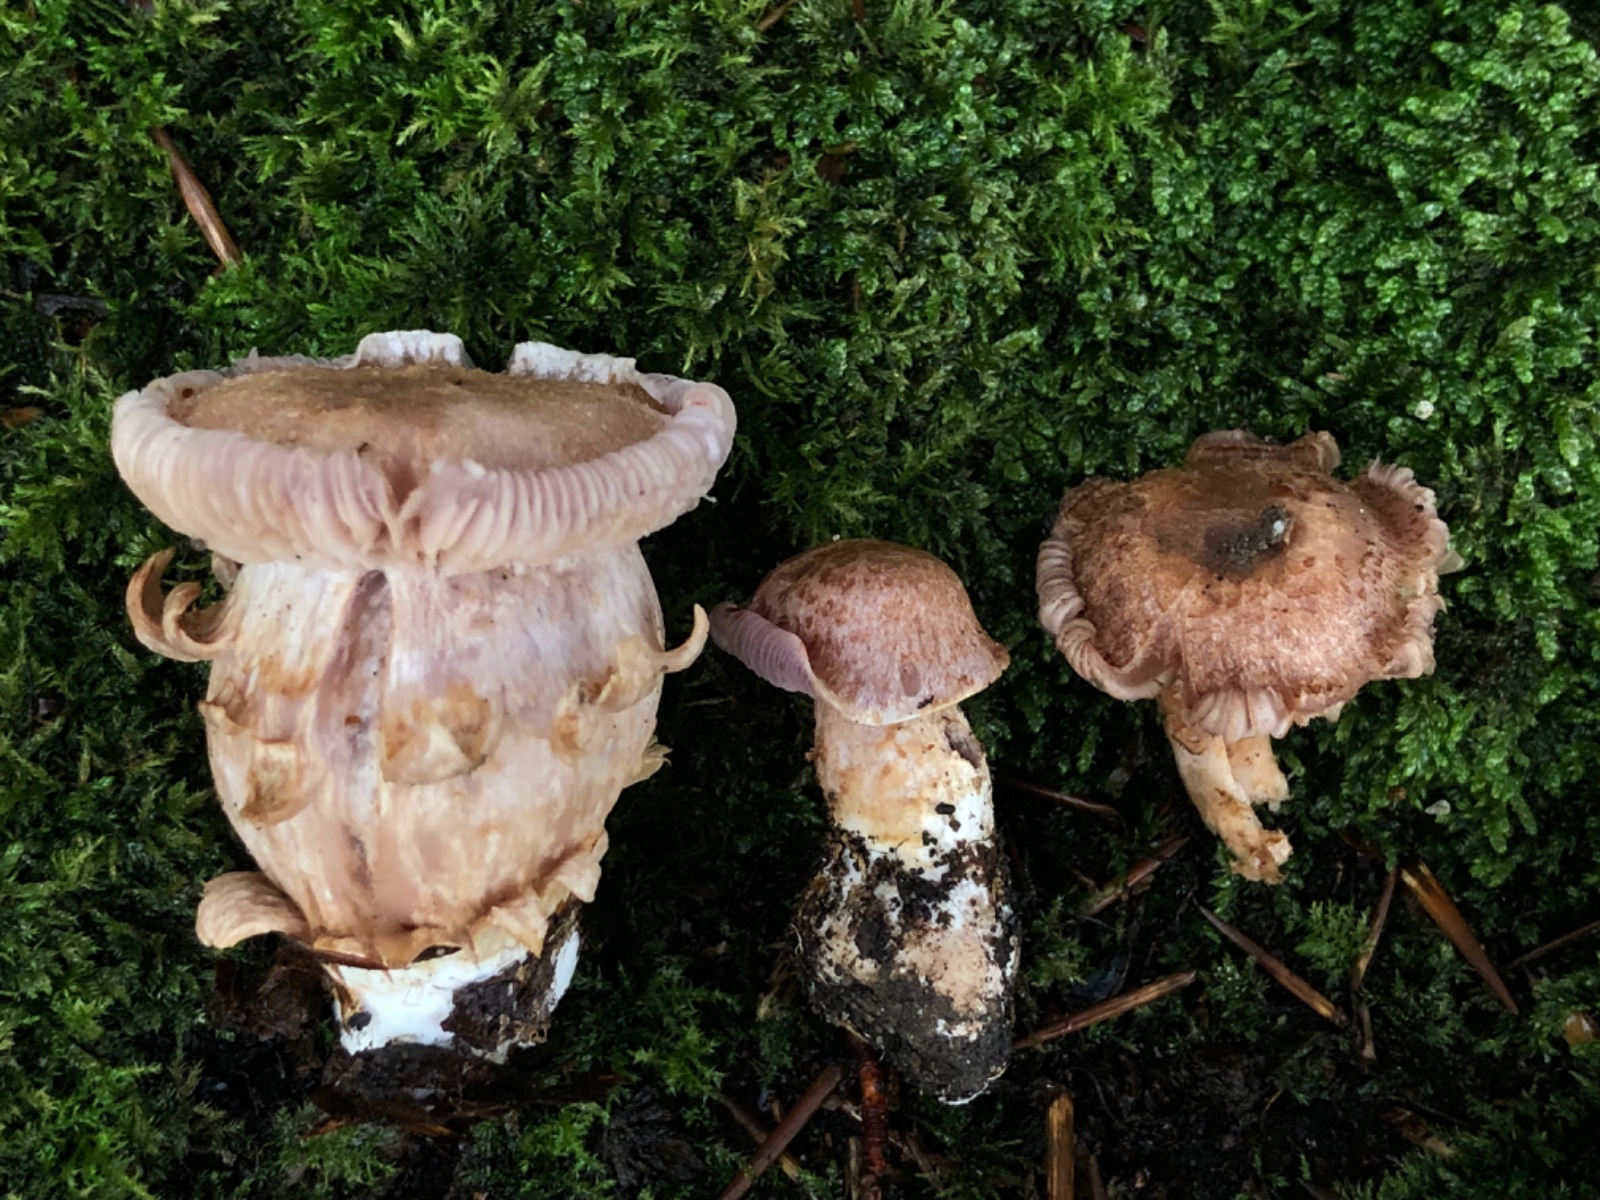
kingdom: Fungi
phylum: Basidiomycota
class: Agaricomycetes
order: Agaricales
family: Cortinariaceae
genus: Phlegmacium
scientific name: Phlegmacium
